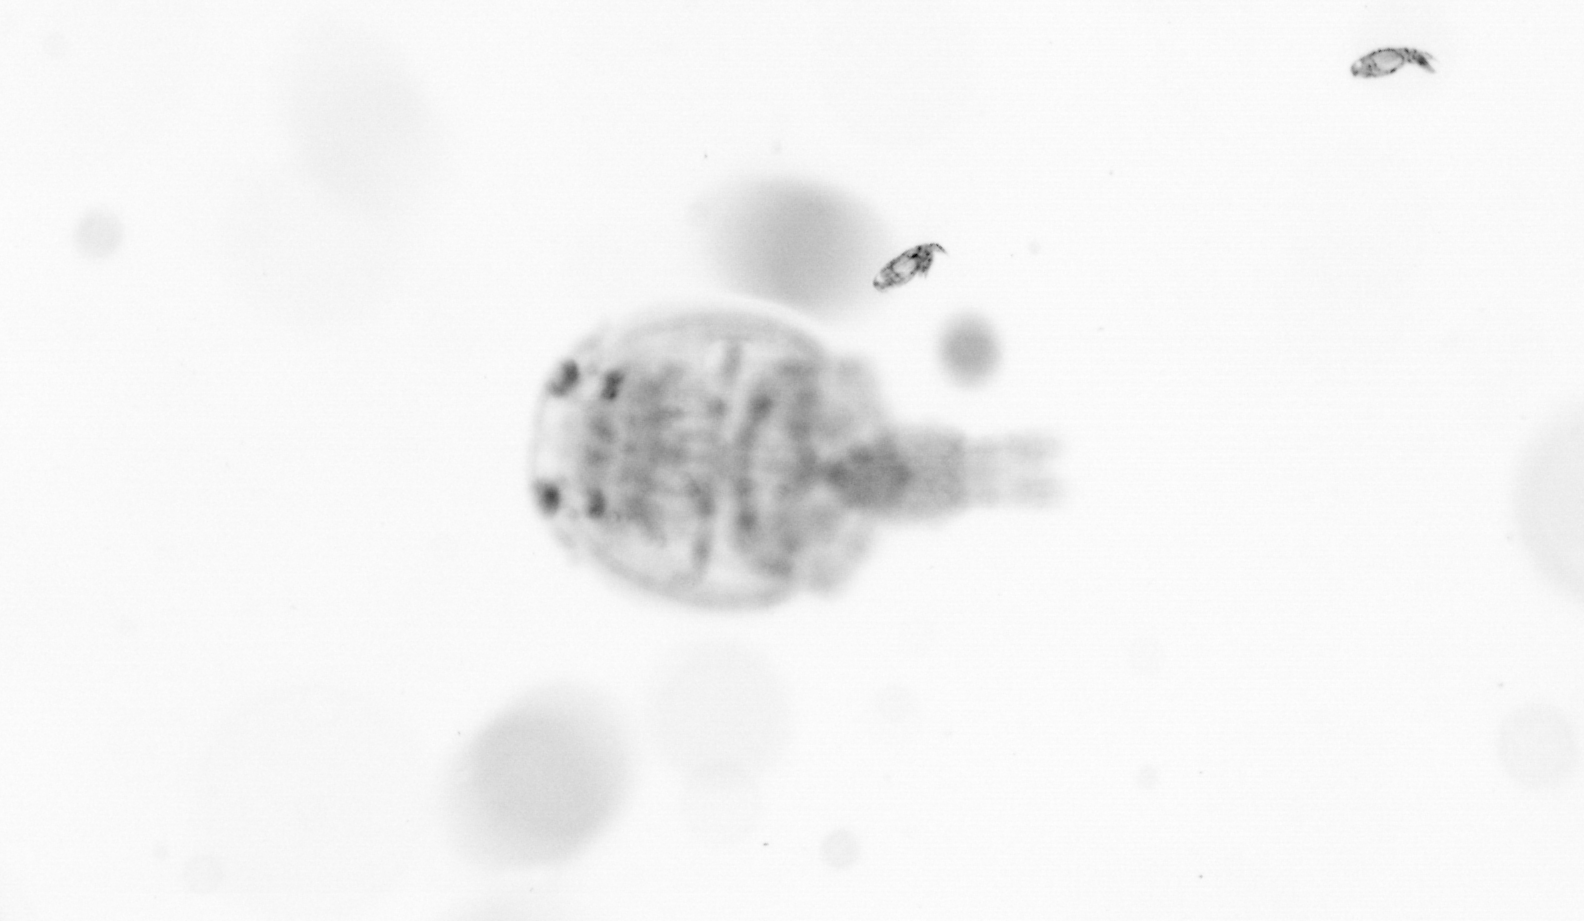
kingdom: Animalia
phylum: Arthropoda
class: Copepoda
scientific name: Copepoda
